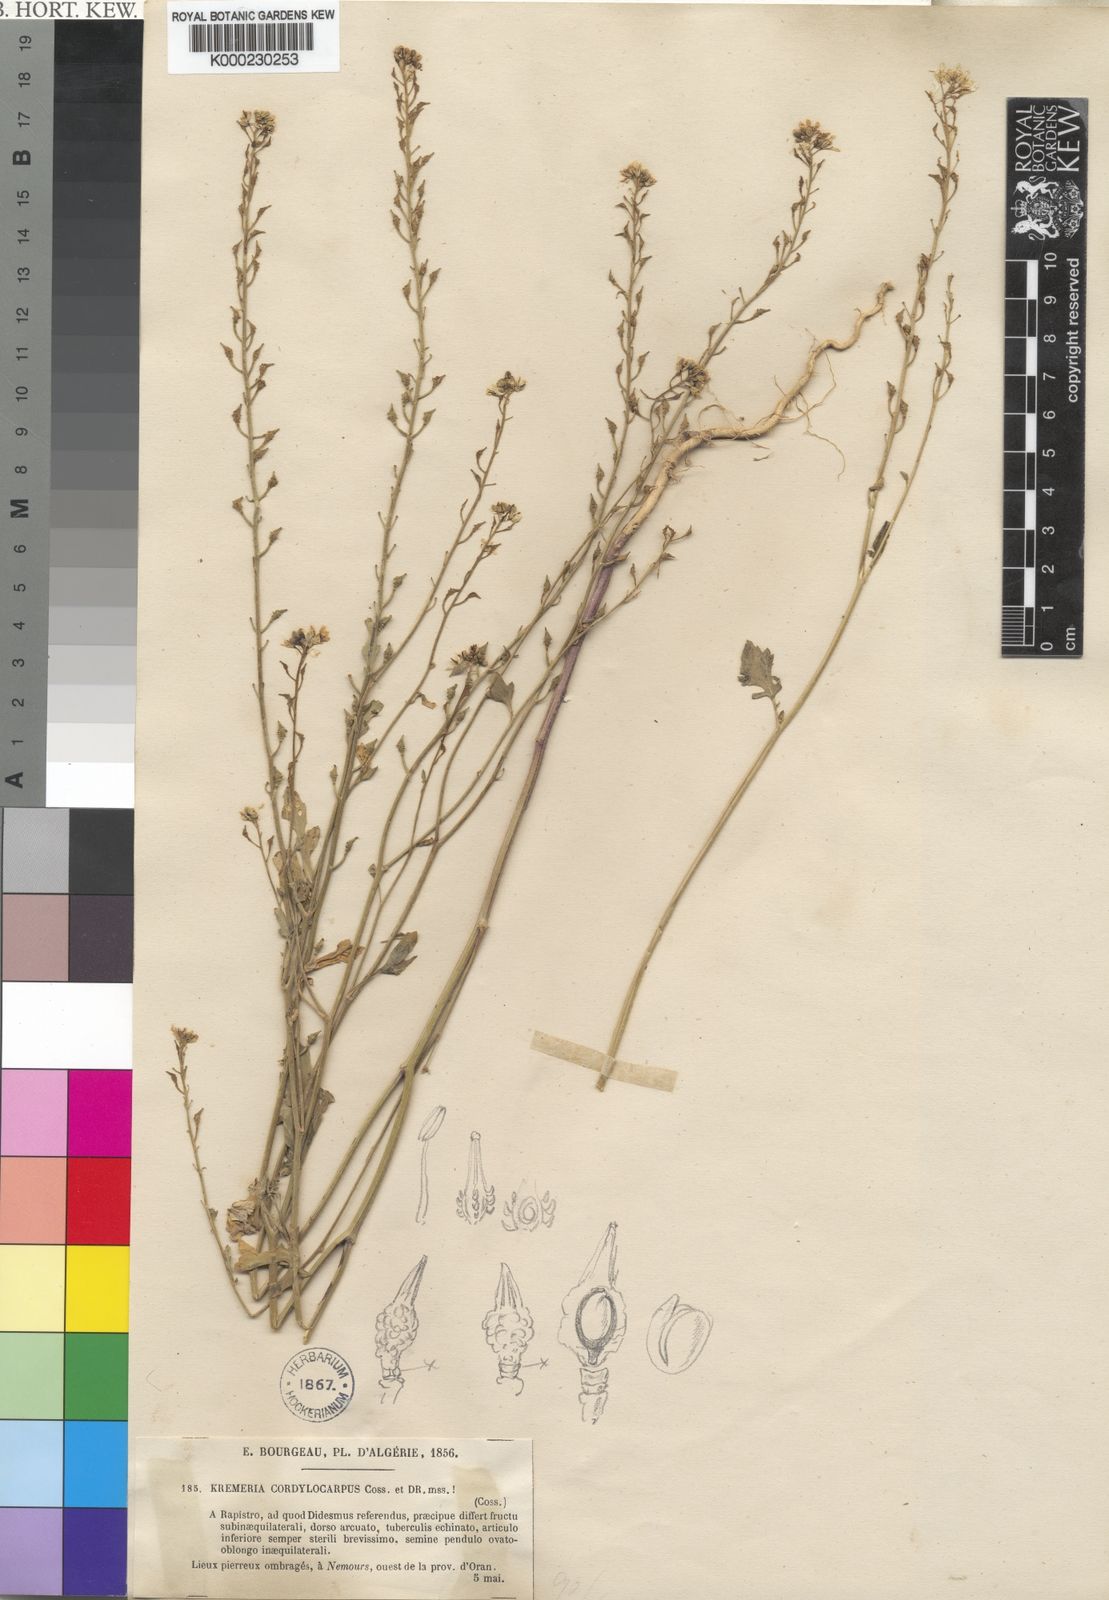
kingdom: Plantae
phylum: Tracheophyta
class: Magnoliopsida
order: Brassicales
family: Brassicaceae
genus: Kremeriella
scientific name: Kremeriella
